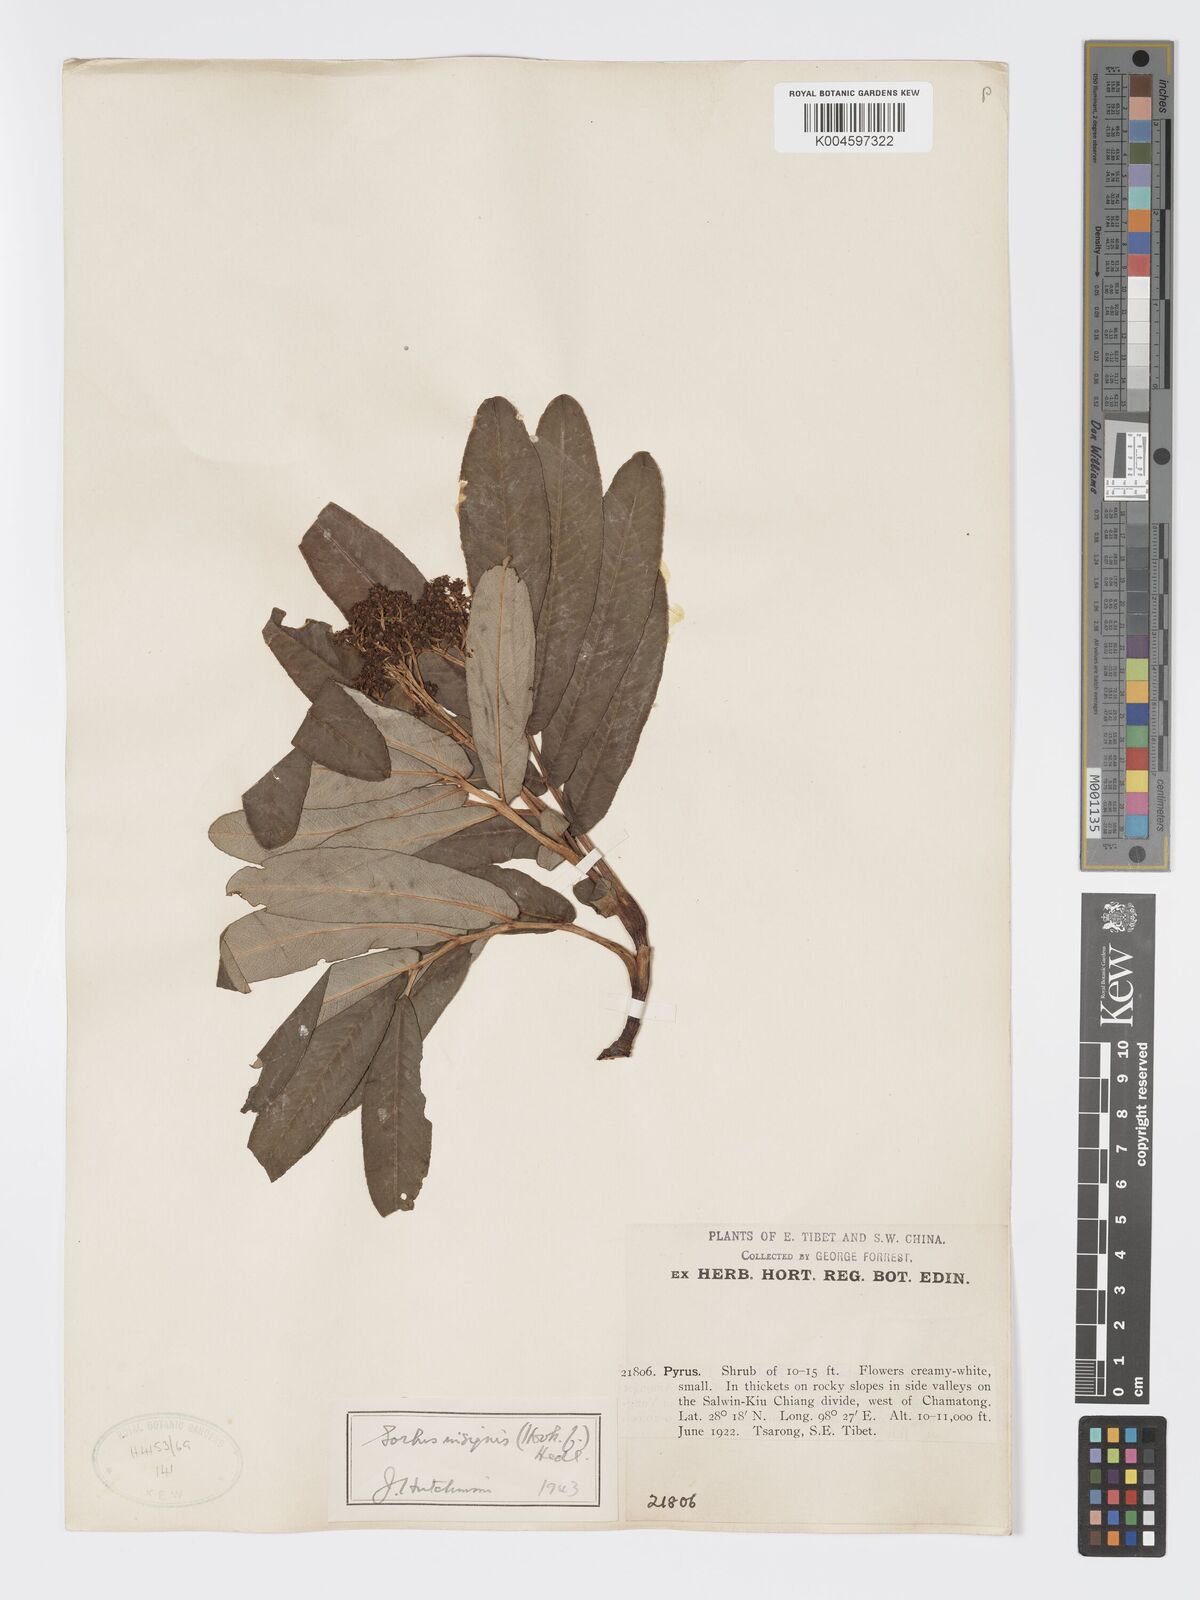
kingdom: Plantae
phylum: Tracheophyta
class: Magnoliopsida
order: Rosales
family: Rosaceae
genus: Sorbus
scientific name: Sorbus
